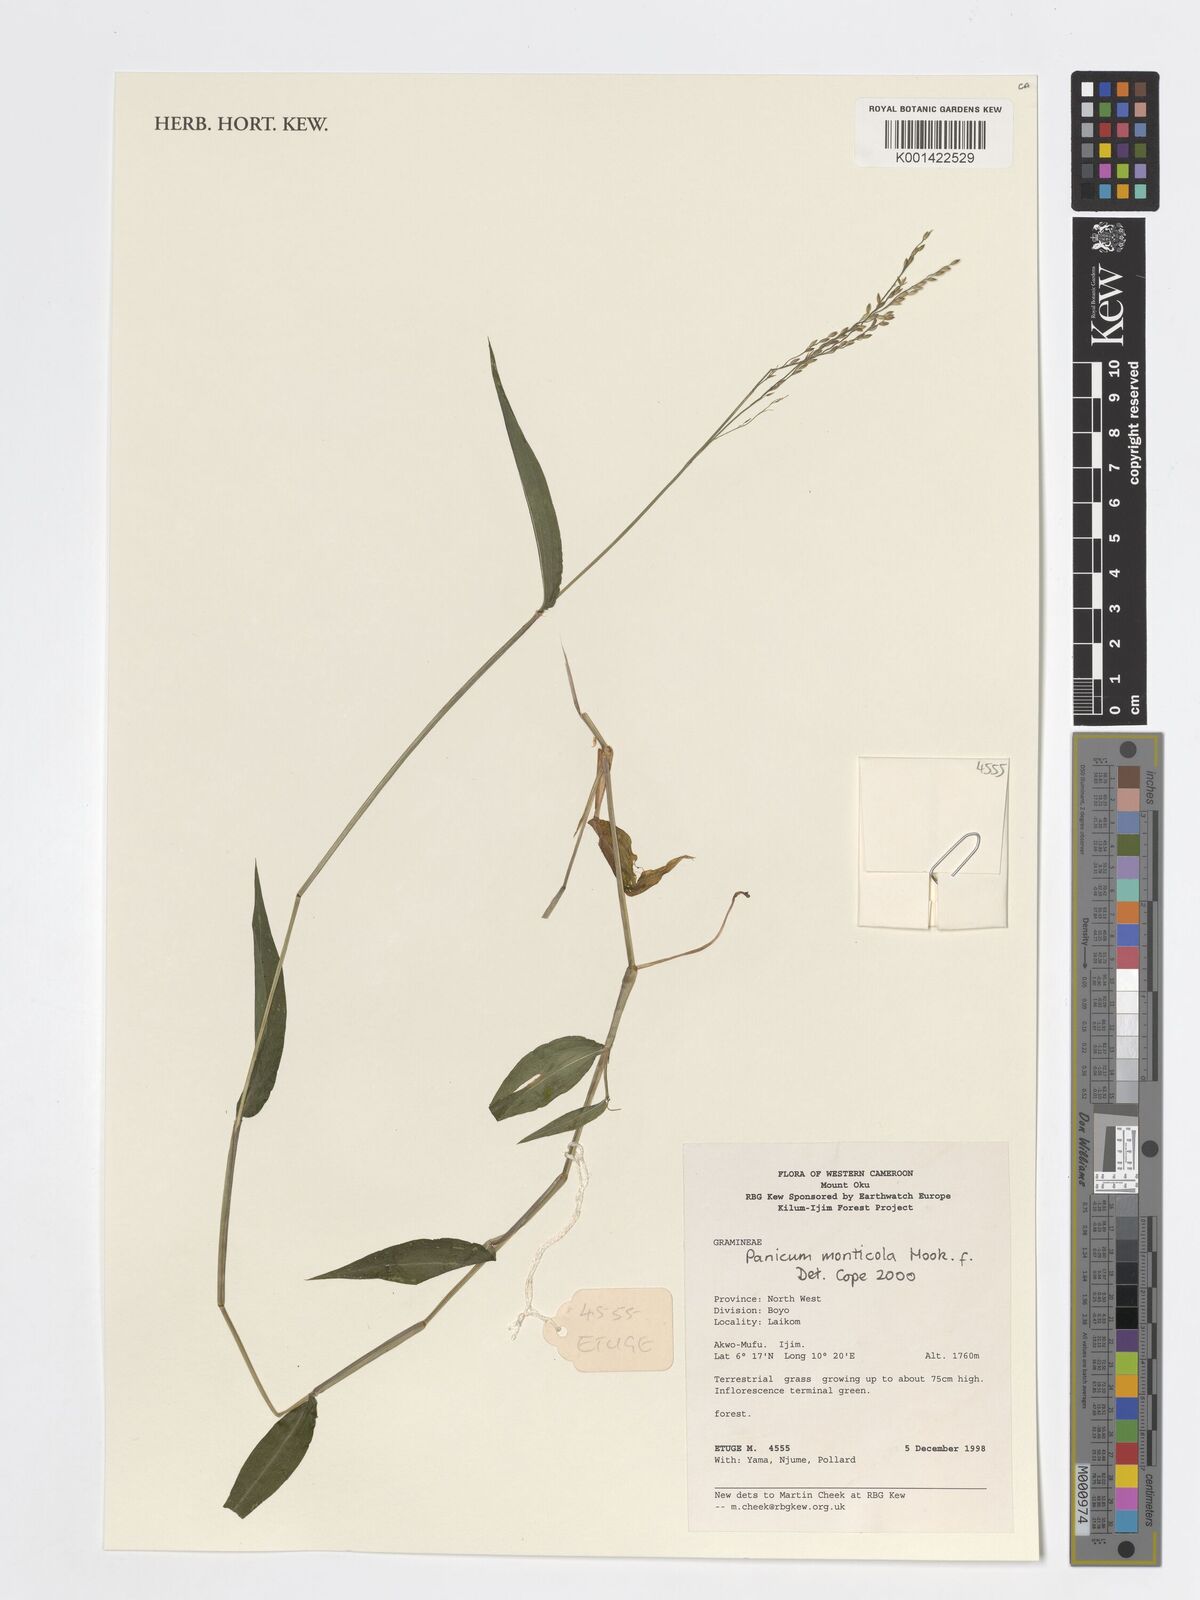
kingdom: Plantae
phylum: Tracheophyta
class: Liliopsida
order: Poales
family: Poaceae
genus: Panicum
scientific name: Panicum monticola
